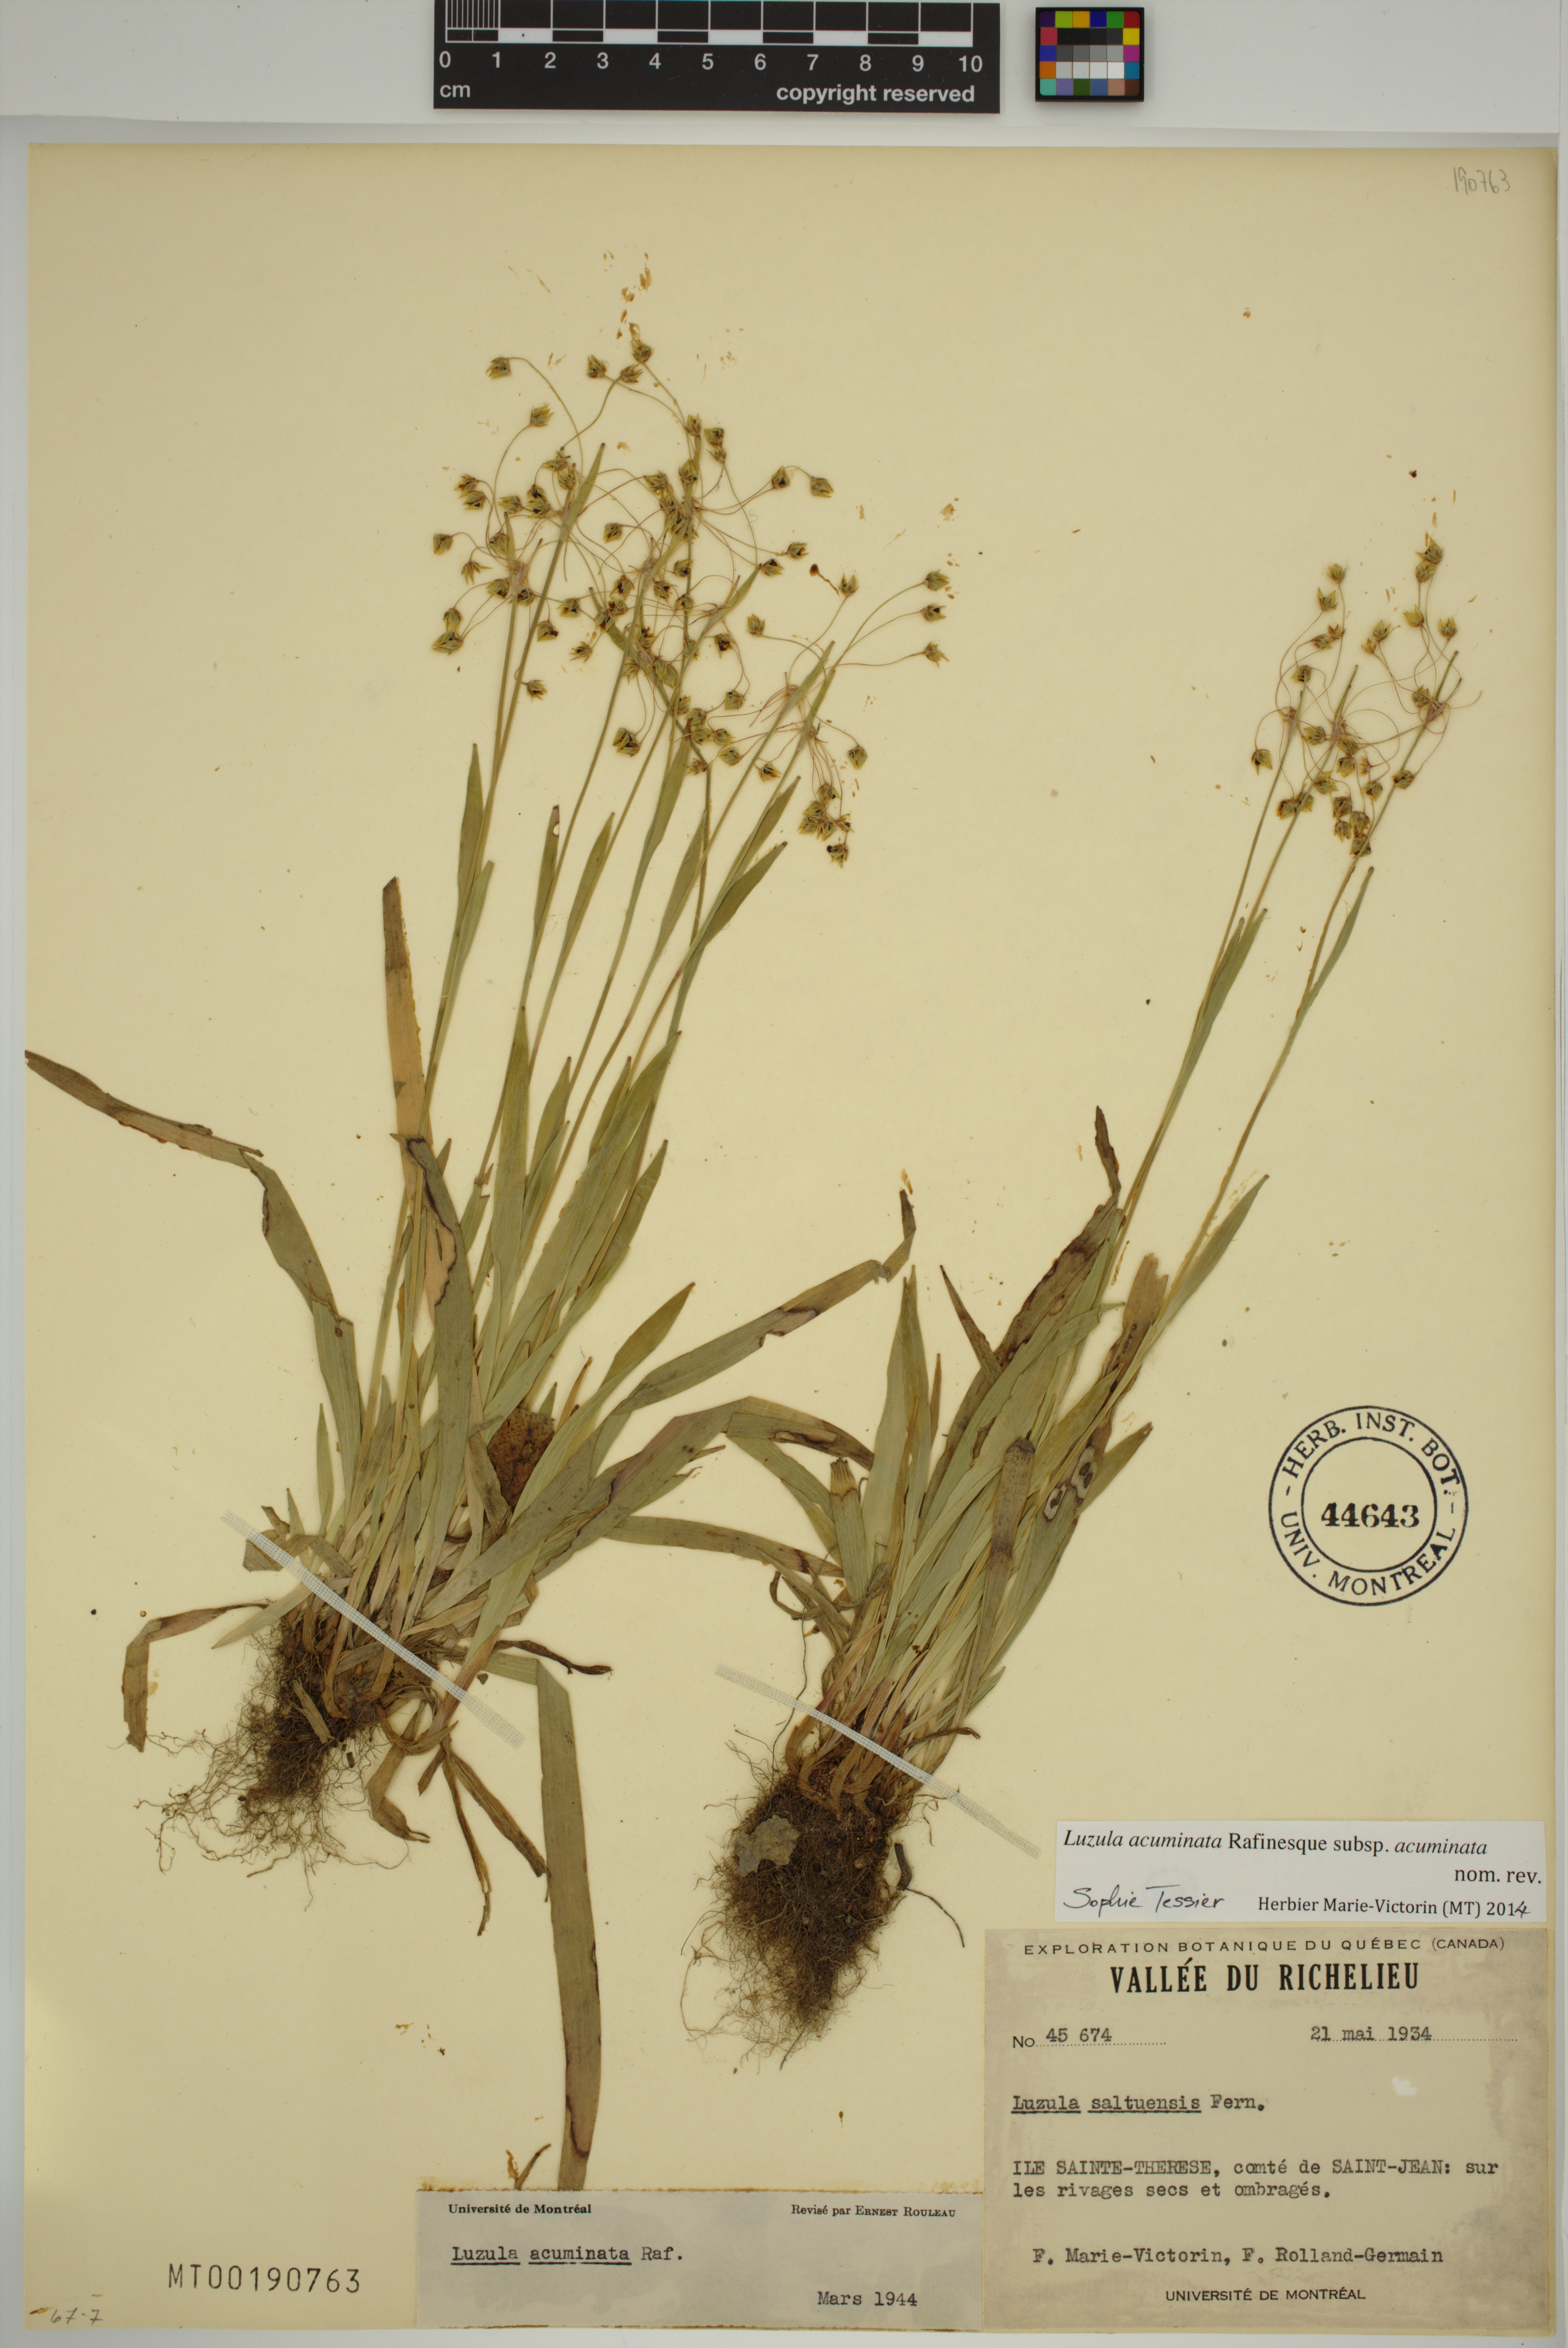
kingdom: Plantae
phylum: Tracheophyta
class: Liliopsida
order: Poales
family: Juncaceae
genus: Luzula
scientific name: Luzula acuminata
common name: Hairy woodrush
